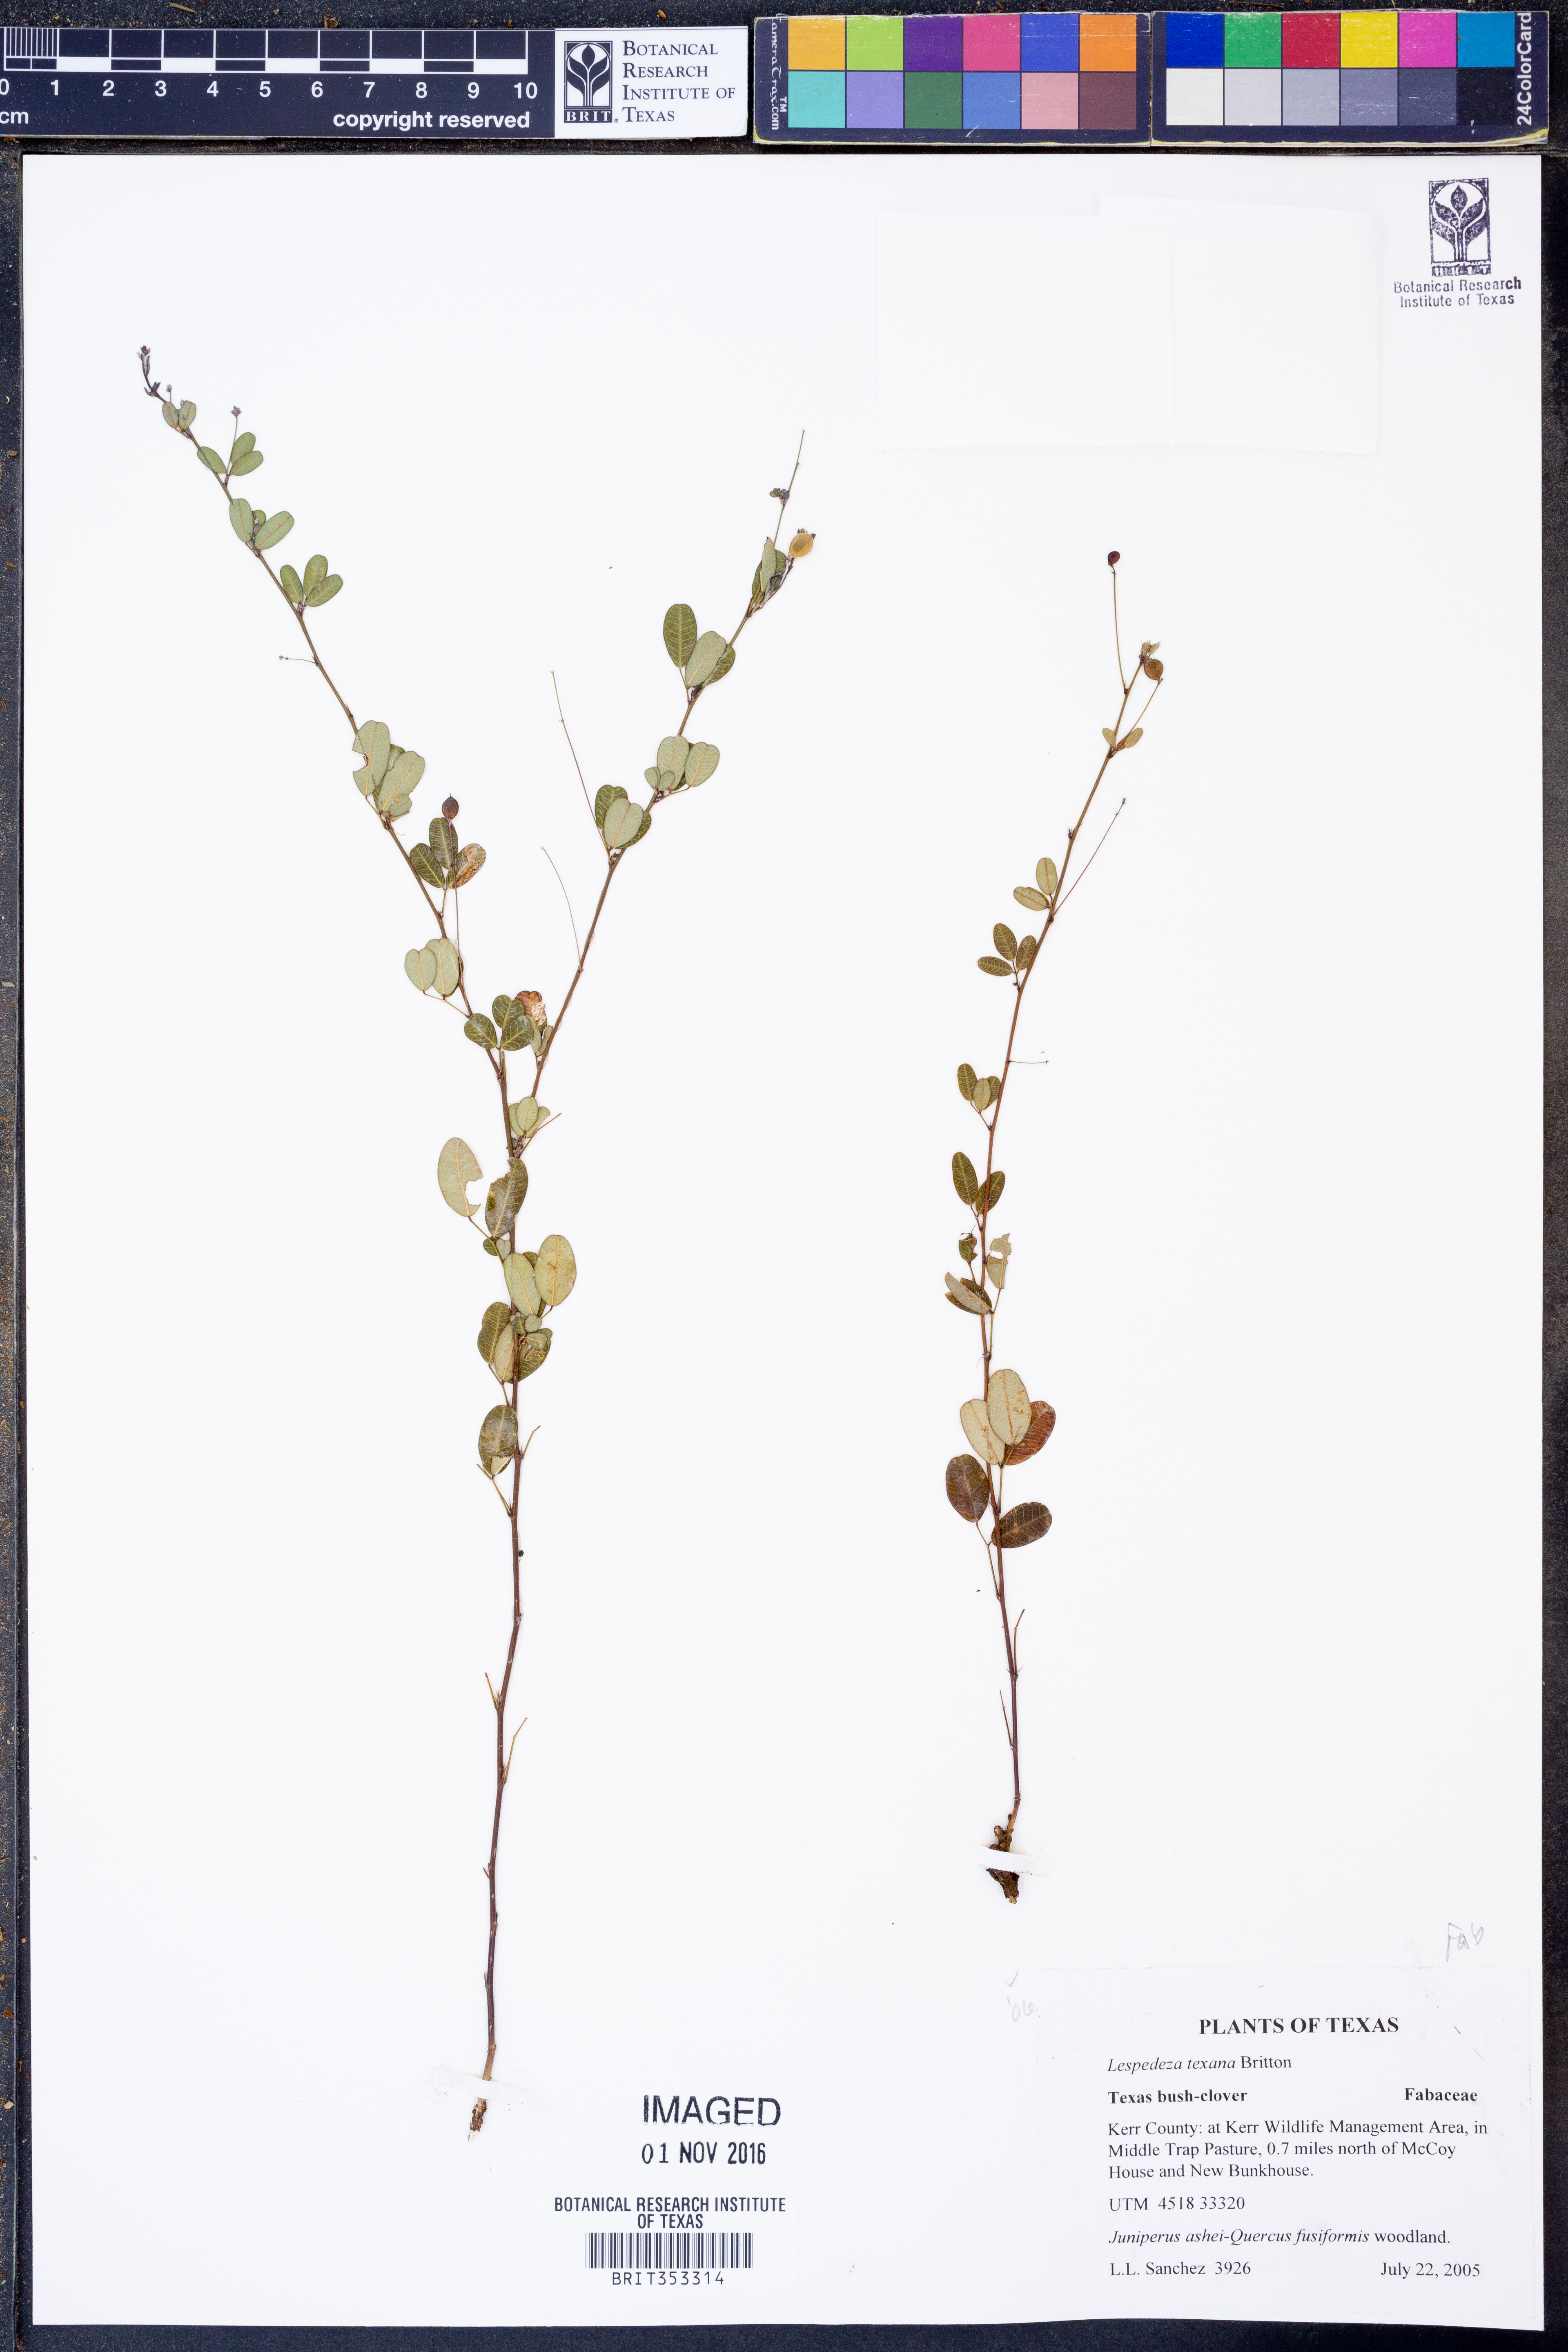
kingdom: Plantae
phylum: Tracheophyta
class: Magnoliopsida
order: Fabales
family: Fabaceae
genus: Lespedeza
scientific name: Lespedeza texana
